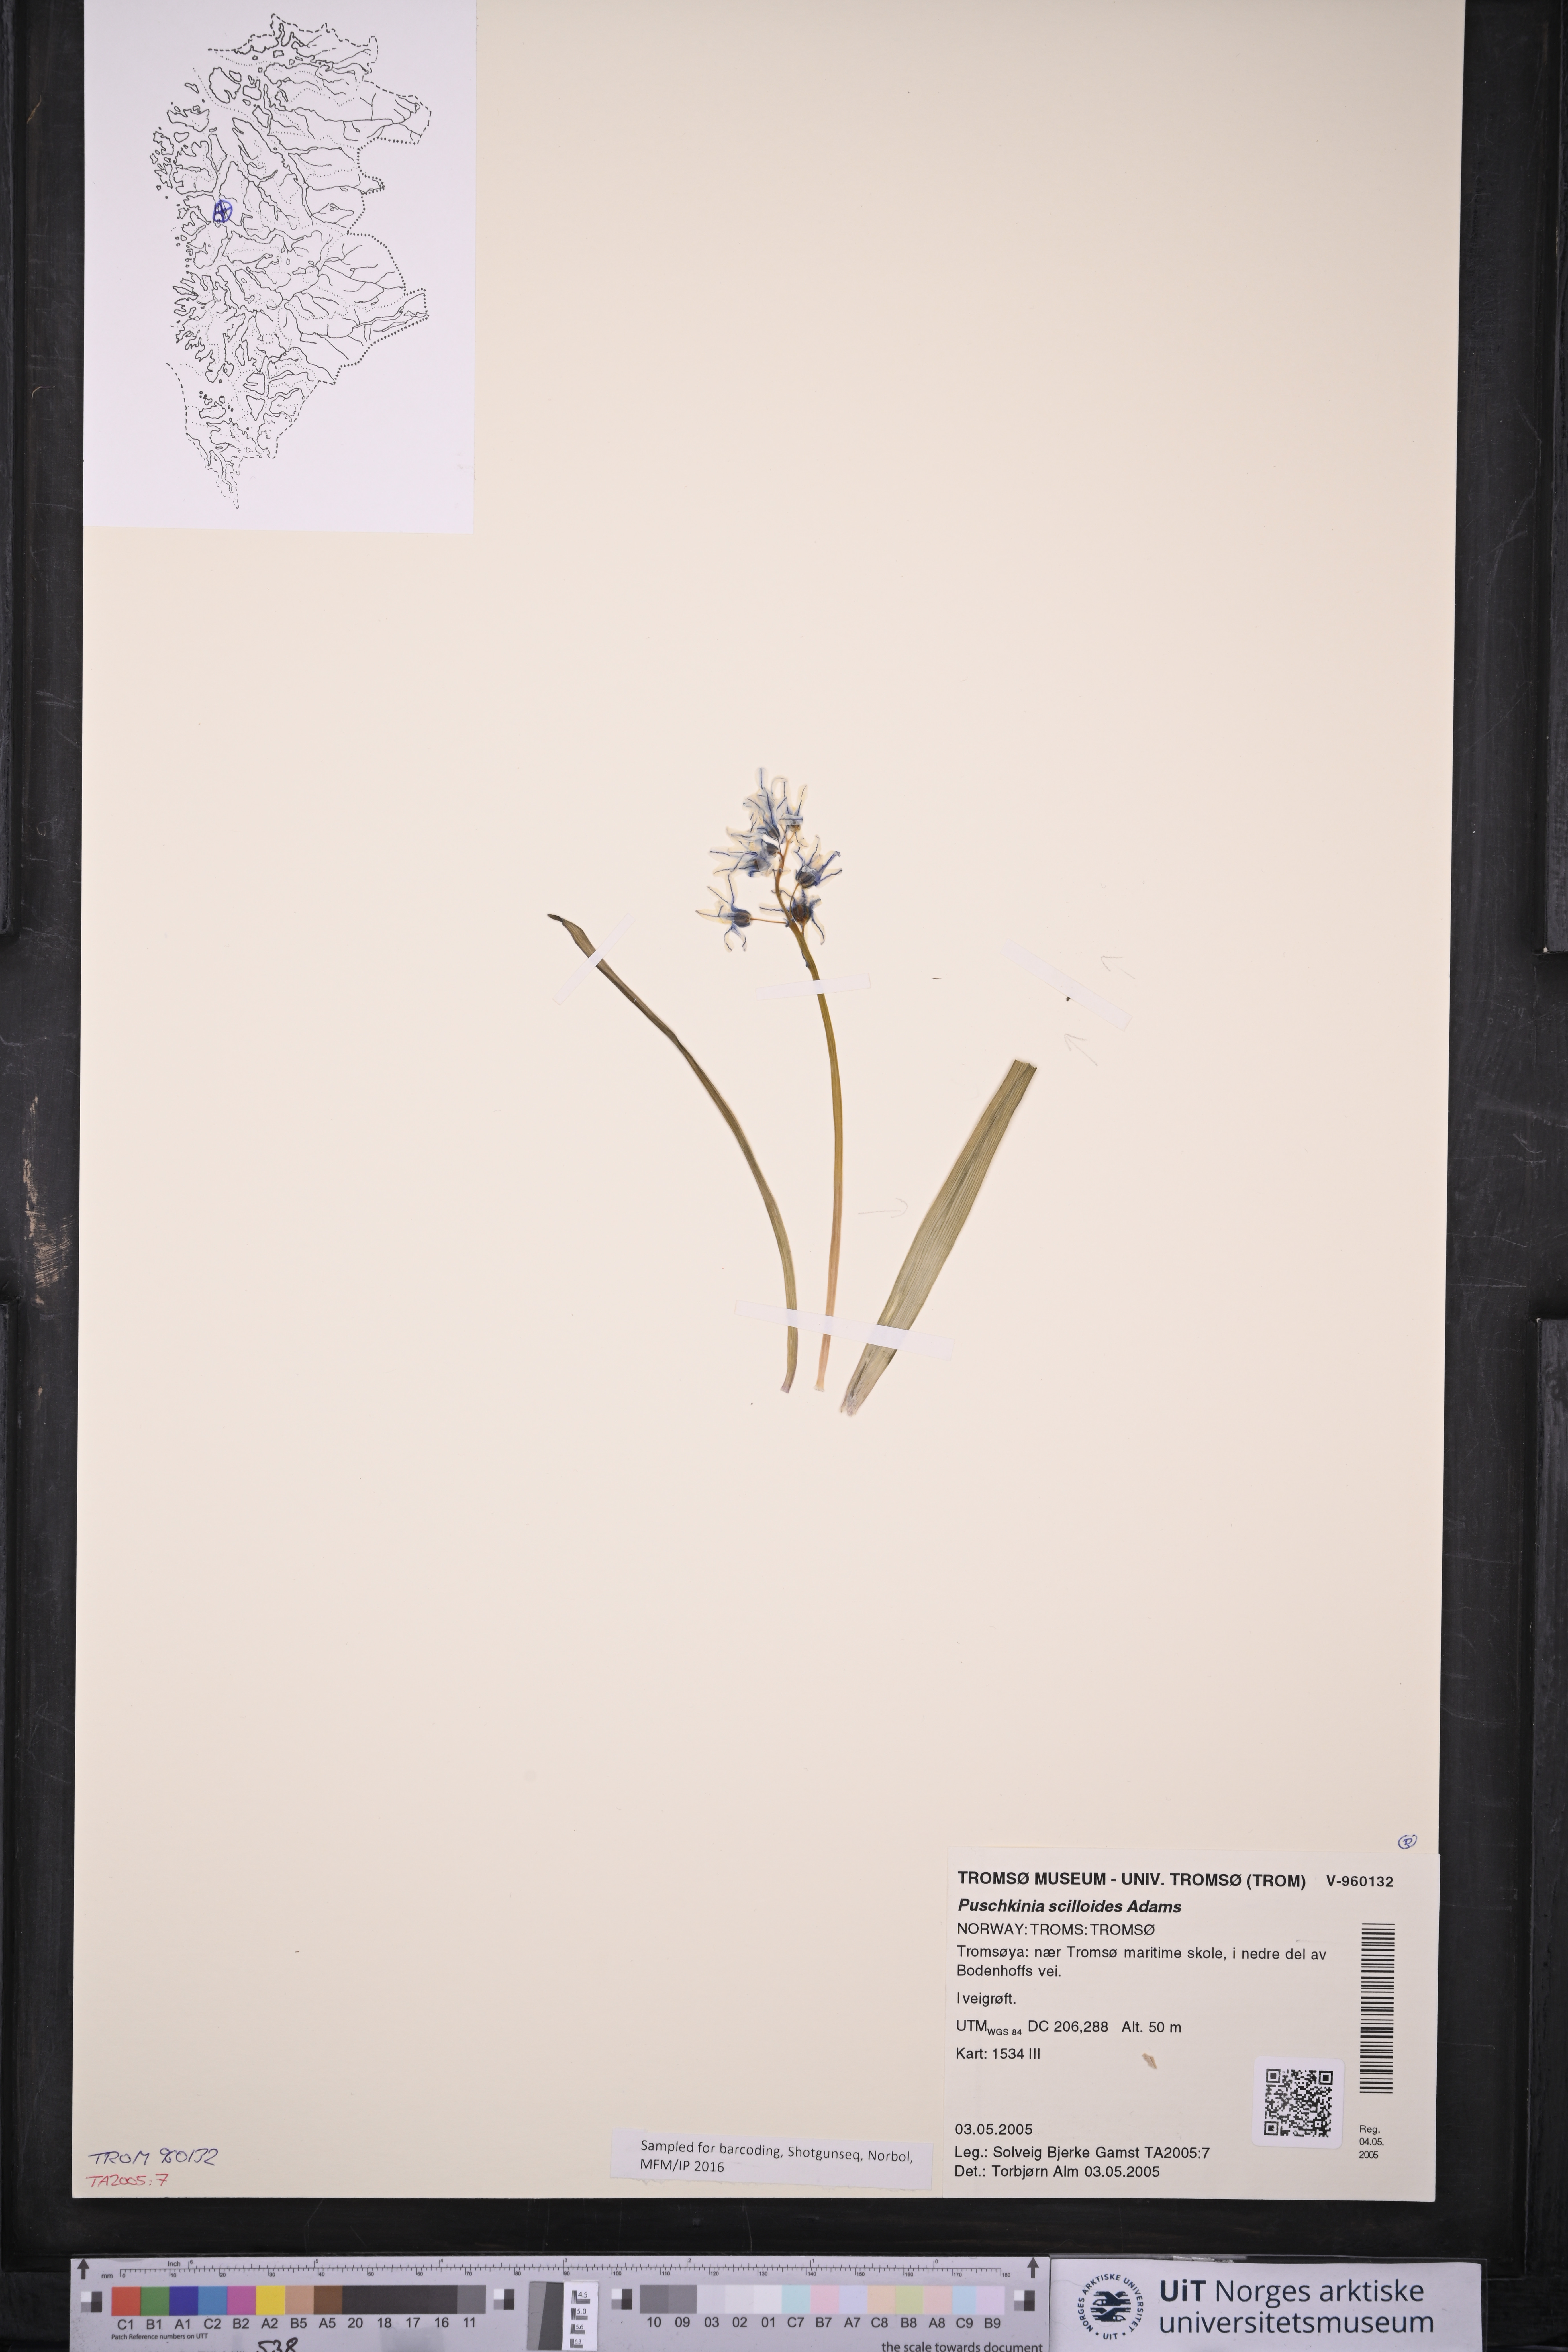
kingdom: Plantae
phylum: Tracheophyta
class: Liliopsida
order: Asparagales
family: Asparagaceae
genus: Puschkinia
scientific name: Puschkinia scilloides
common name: Striped squill
